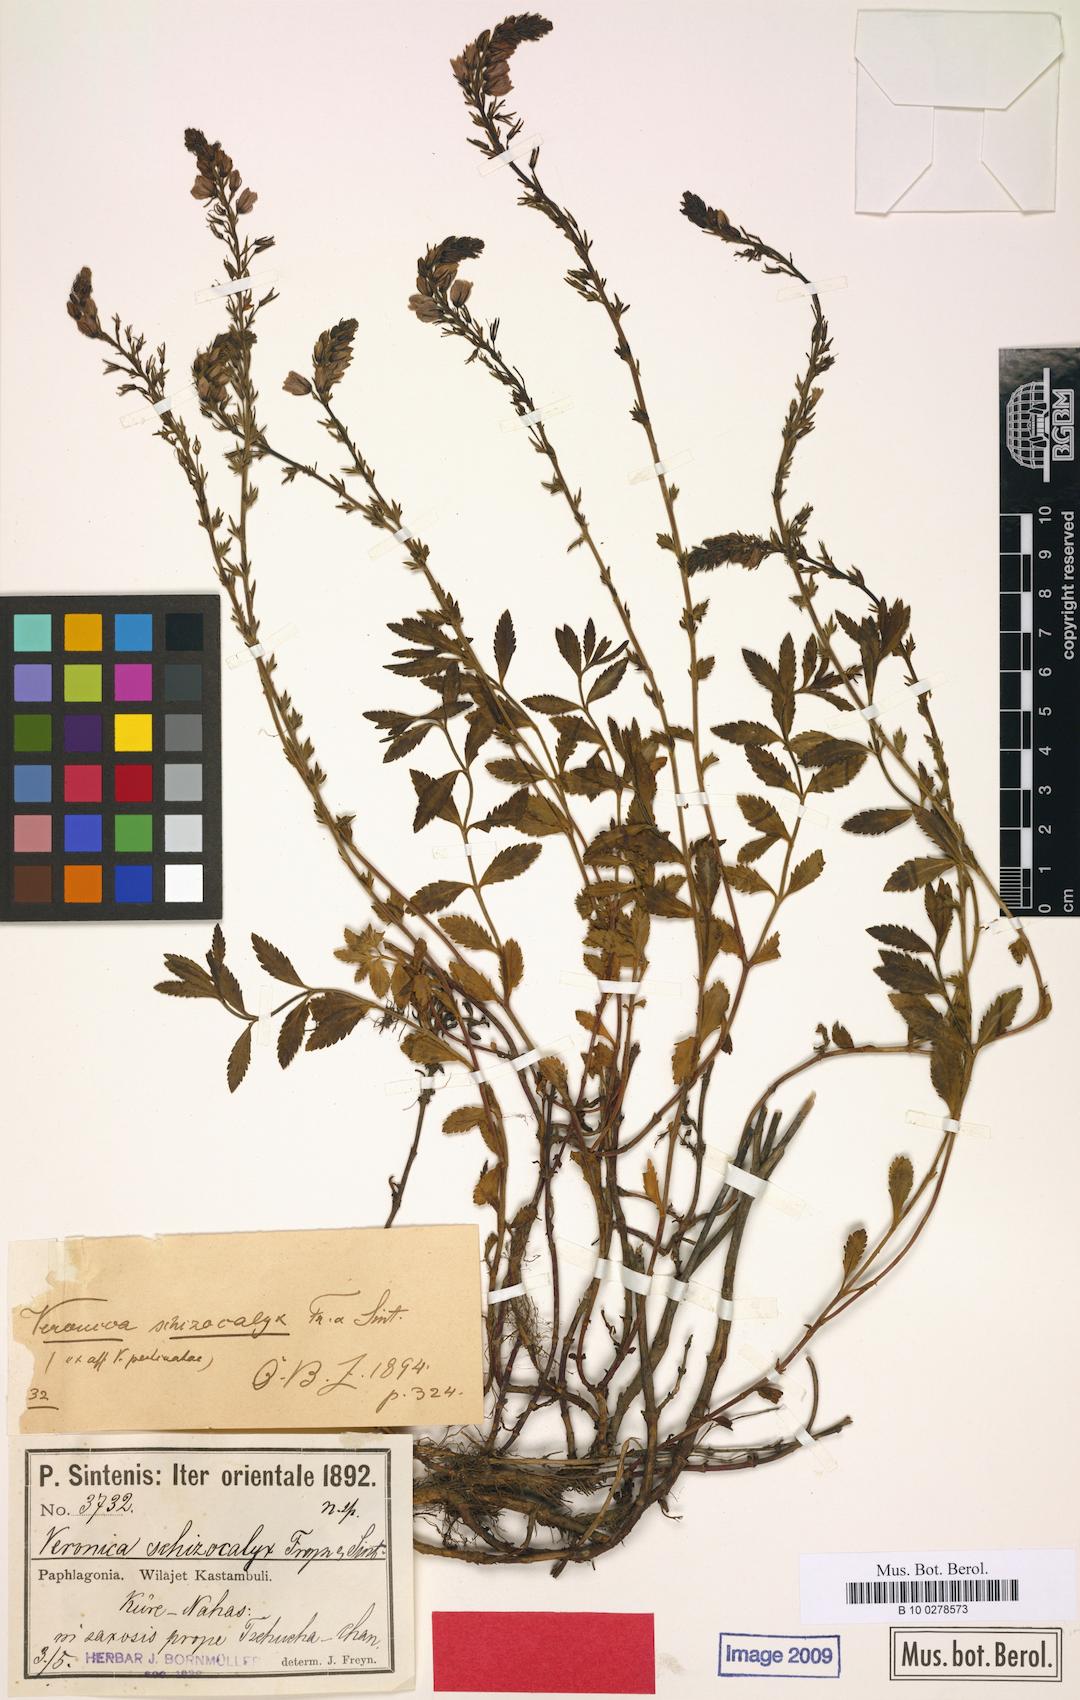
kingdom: Plantae
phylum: Tracheophyta
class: Magnoliopsida
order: Lamiales
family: Plantaginaceae
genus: Veronica
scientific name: Veronica pectinata
